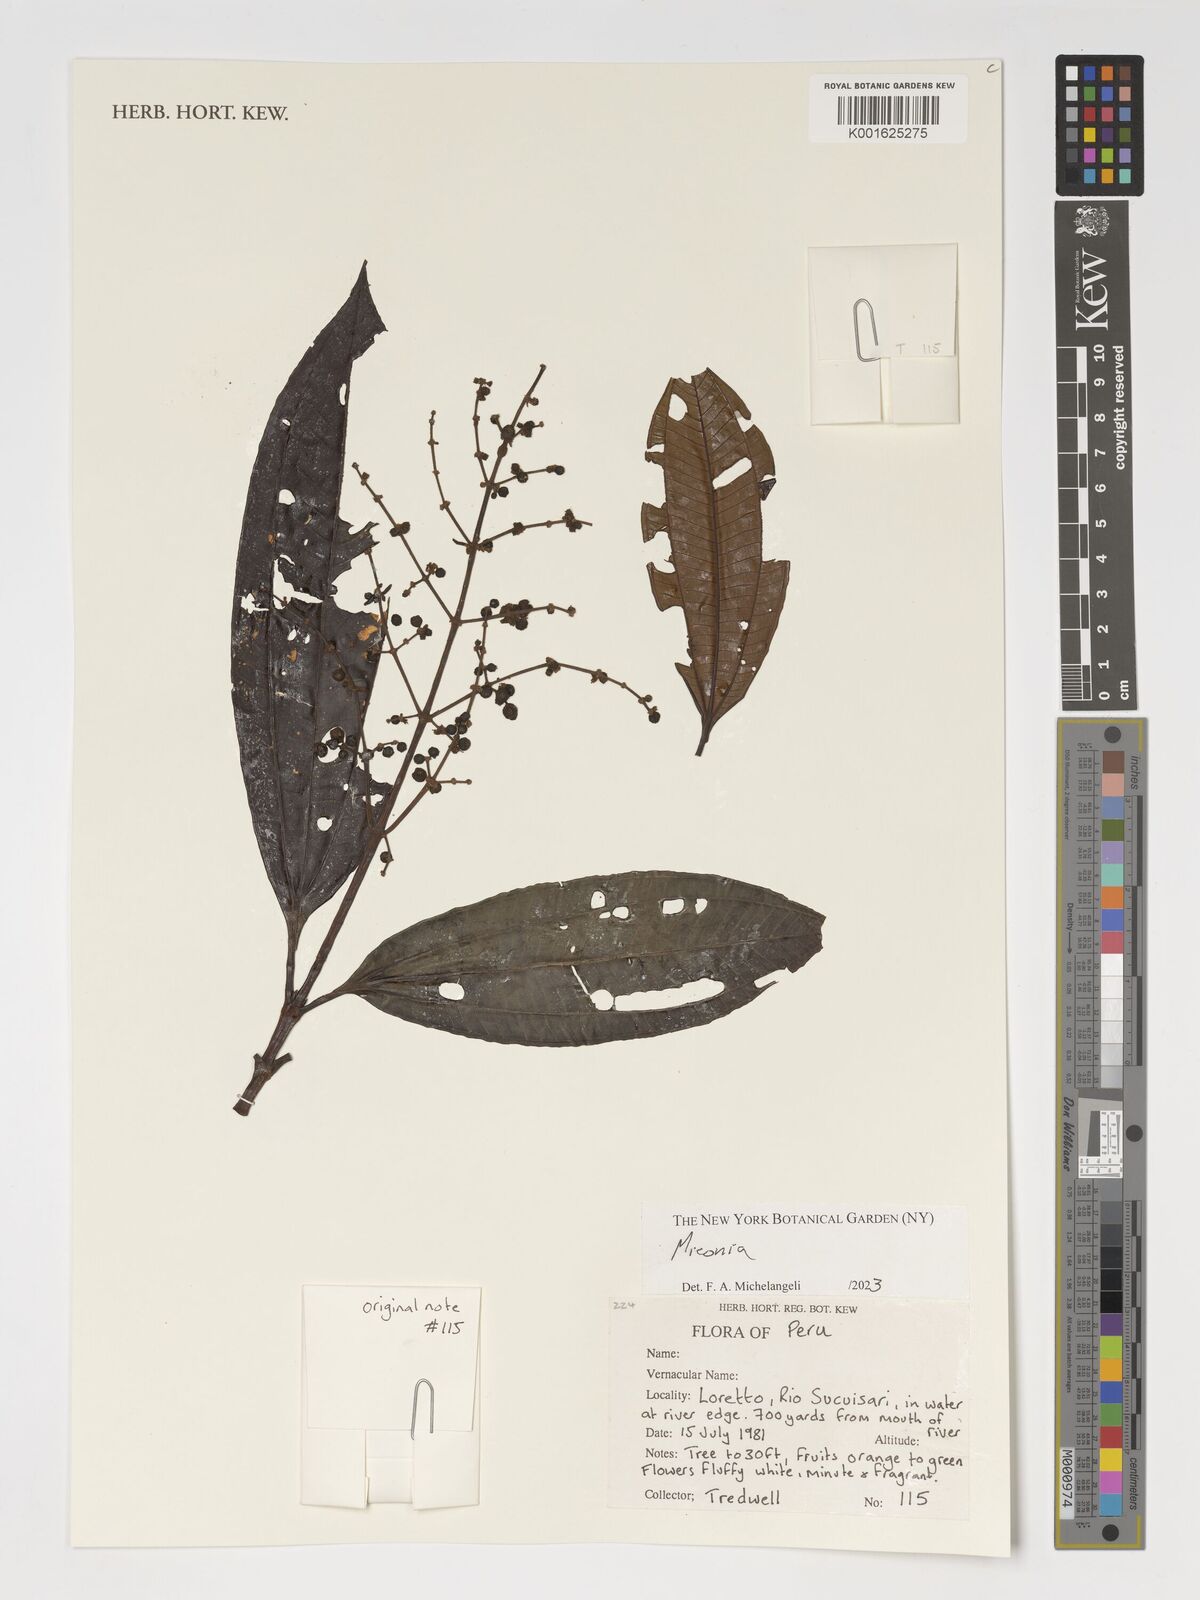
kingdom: Plantae
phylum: Tracheophyta
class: Magnoliopsida
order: Myrtales
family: Melastomataceae
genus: Miconia
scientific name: Miconia
